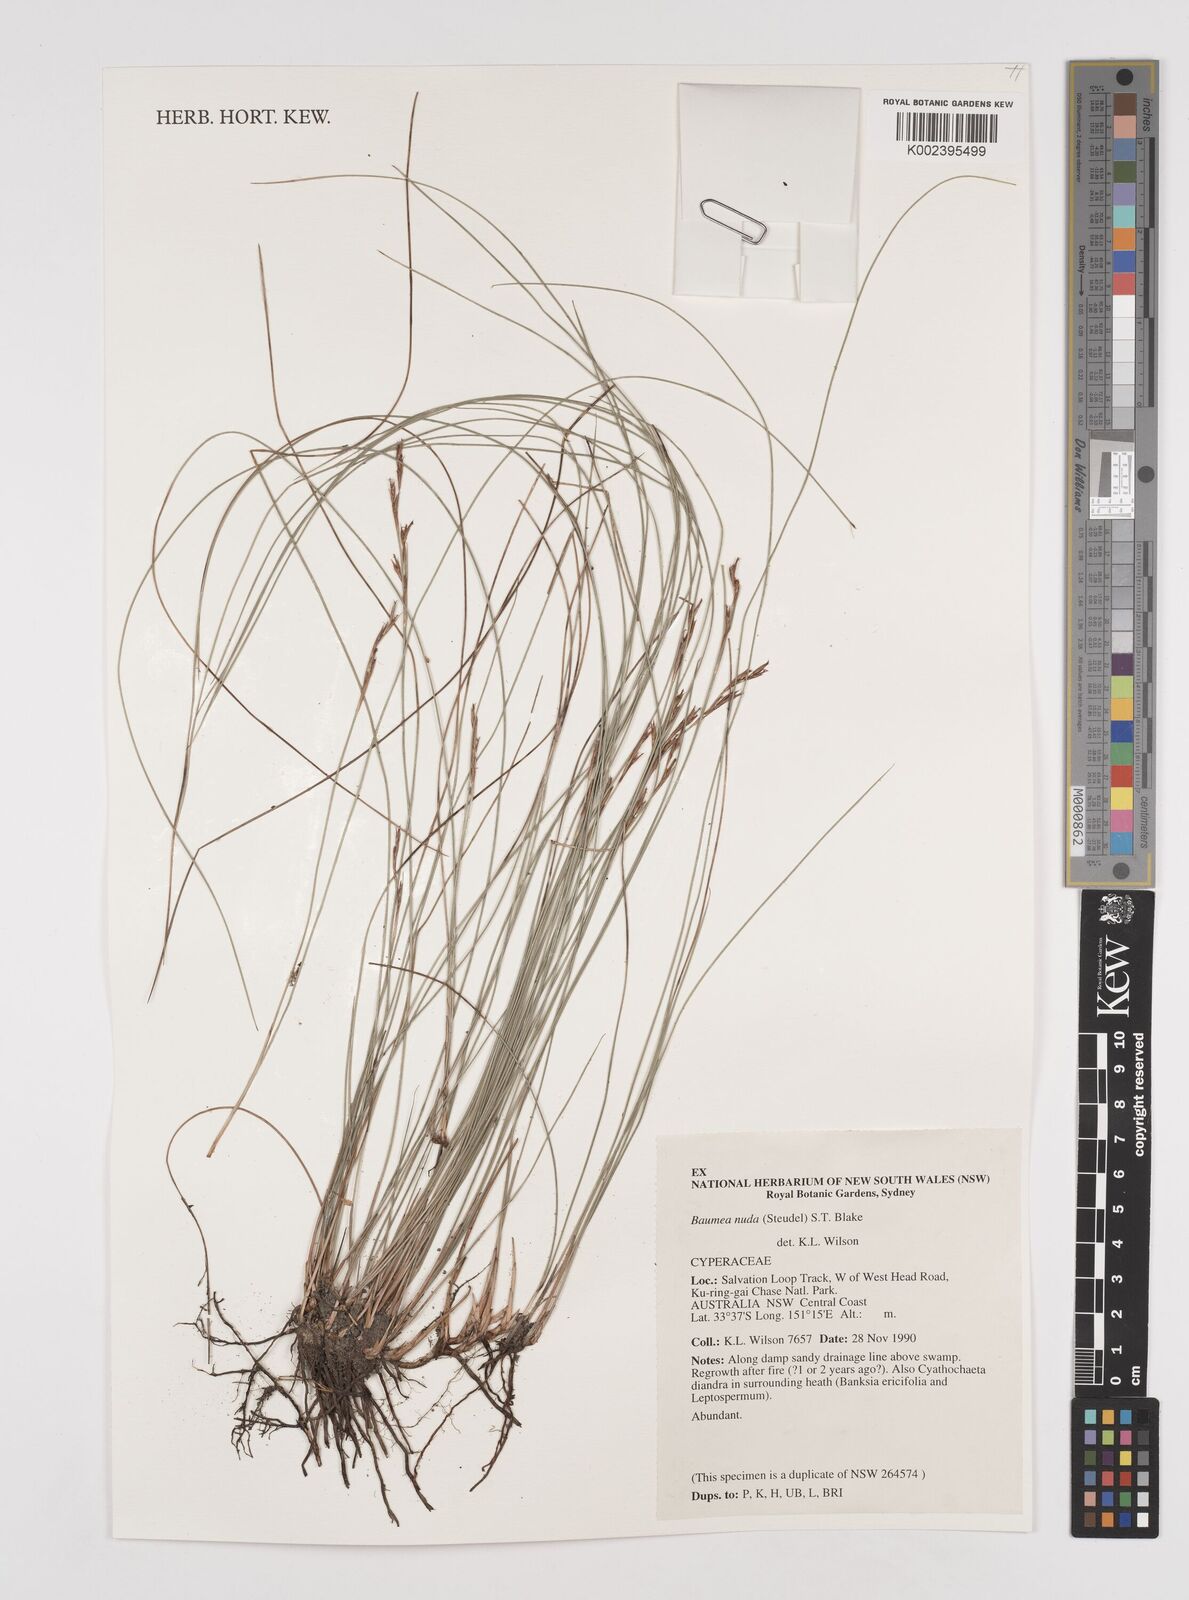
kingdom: Plantae
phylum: Tracheophyta
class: Liliopsida
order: Poales
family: Cyperaceae
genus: Machaerina
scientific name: Machaerina nuda
